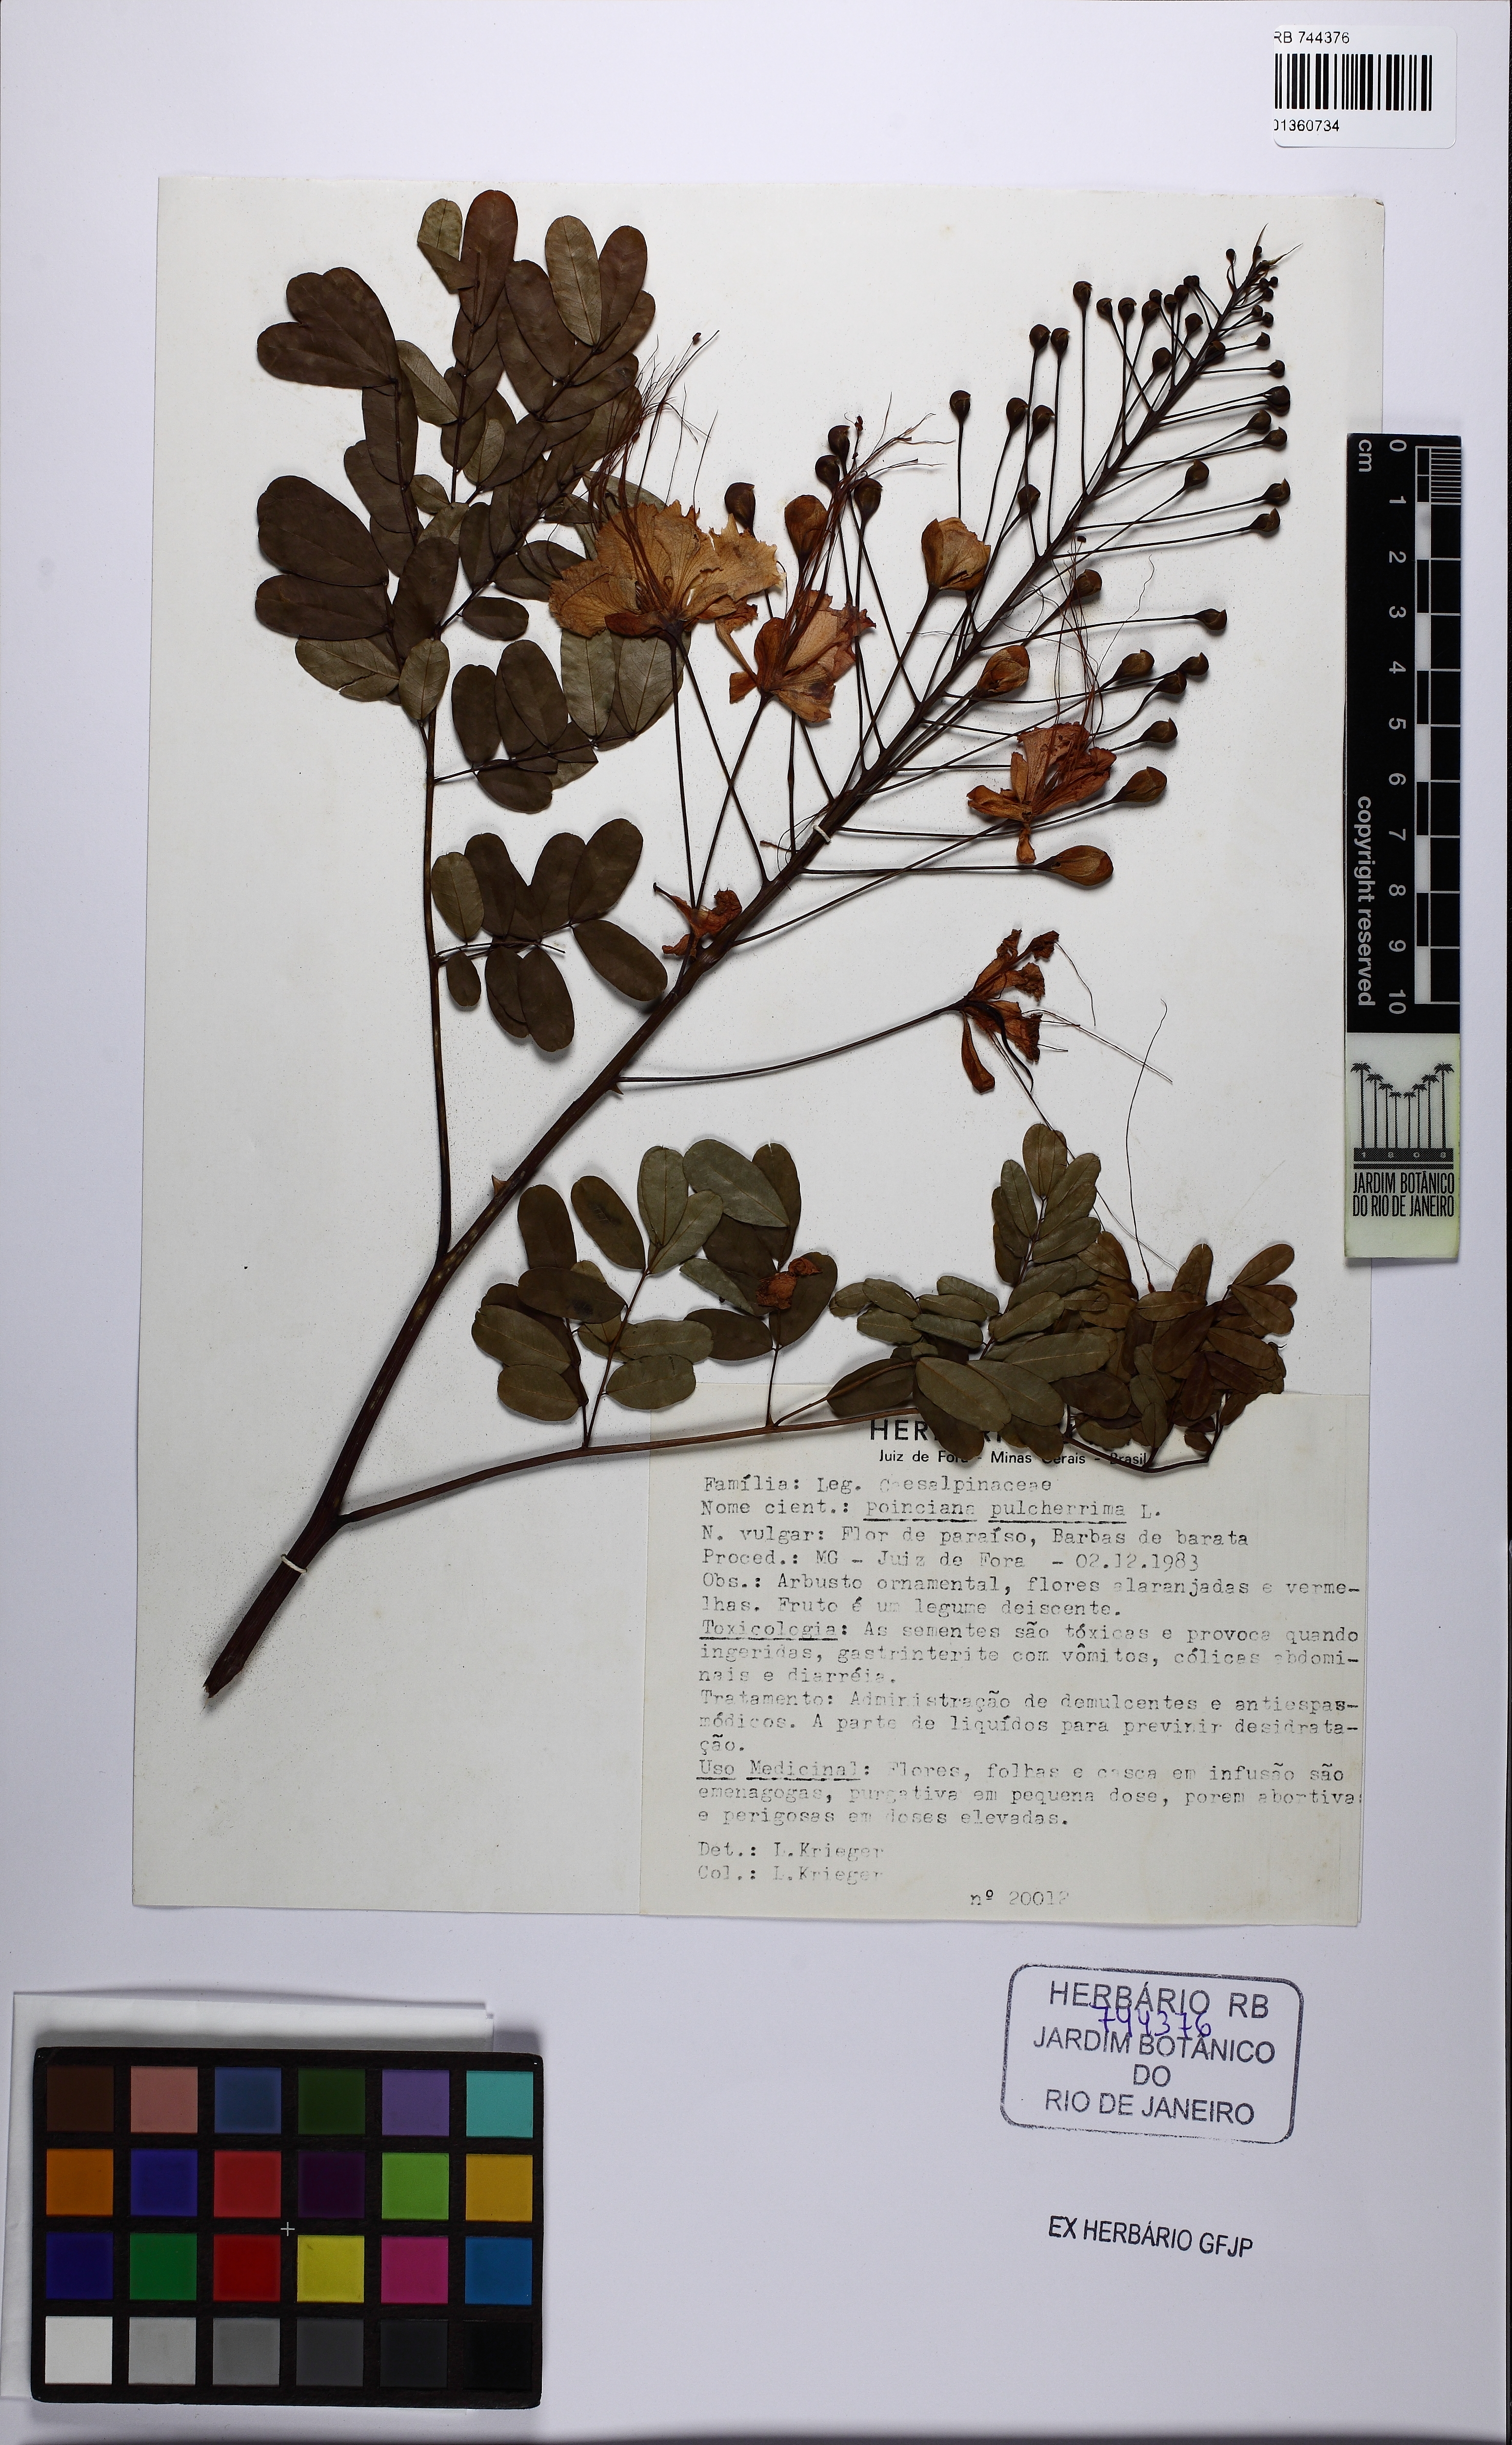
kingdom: Plantae
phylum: Tracheophyta
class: Magnoliopsida
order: Fabales
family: Fabaceae
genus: Caesalpinia
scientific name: Caesalpinia pulcherrima
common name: Pride-of-barbados
